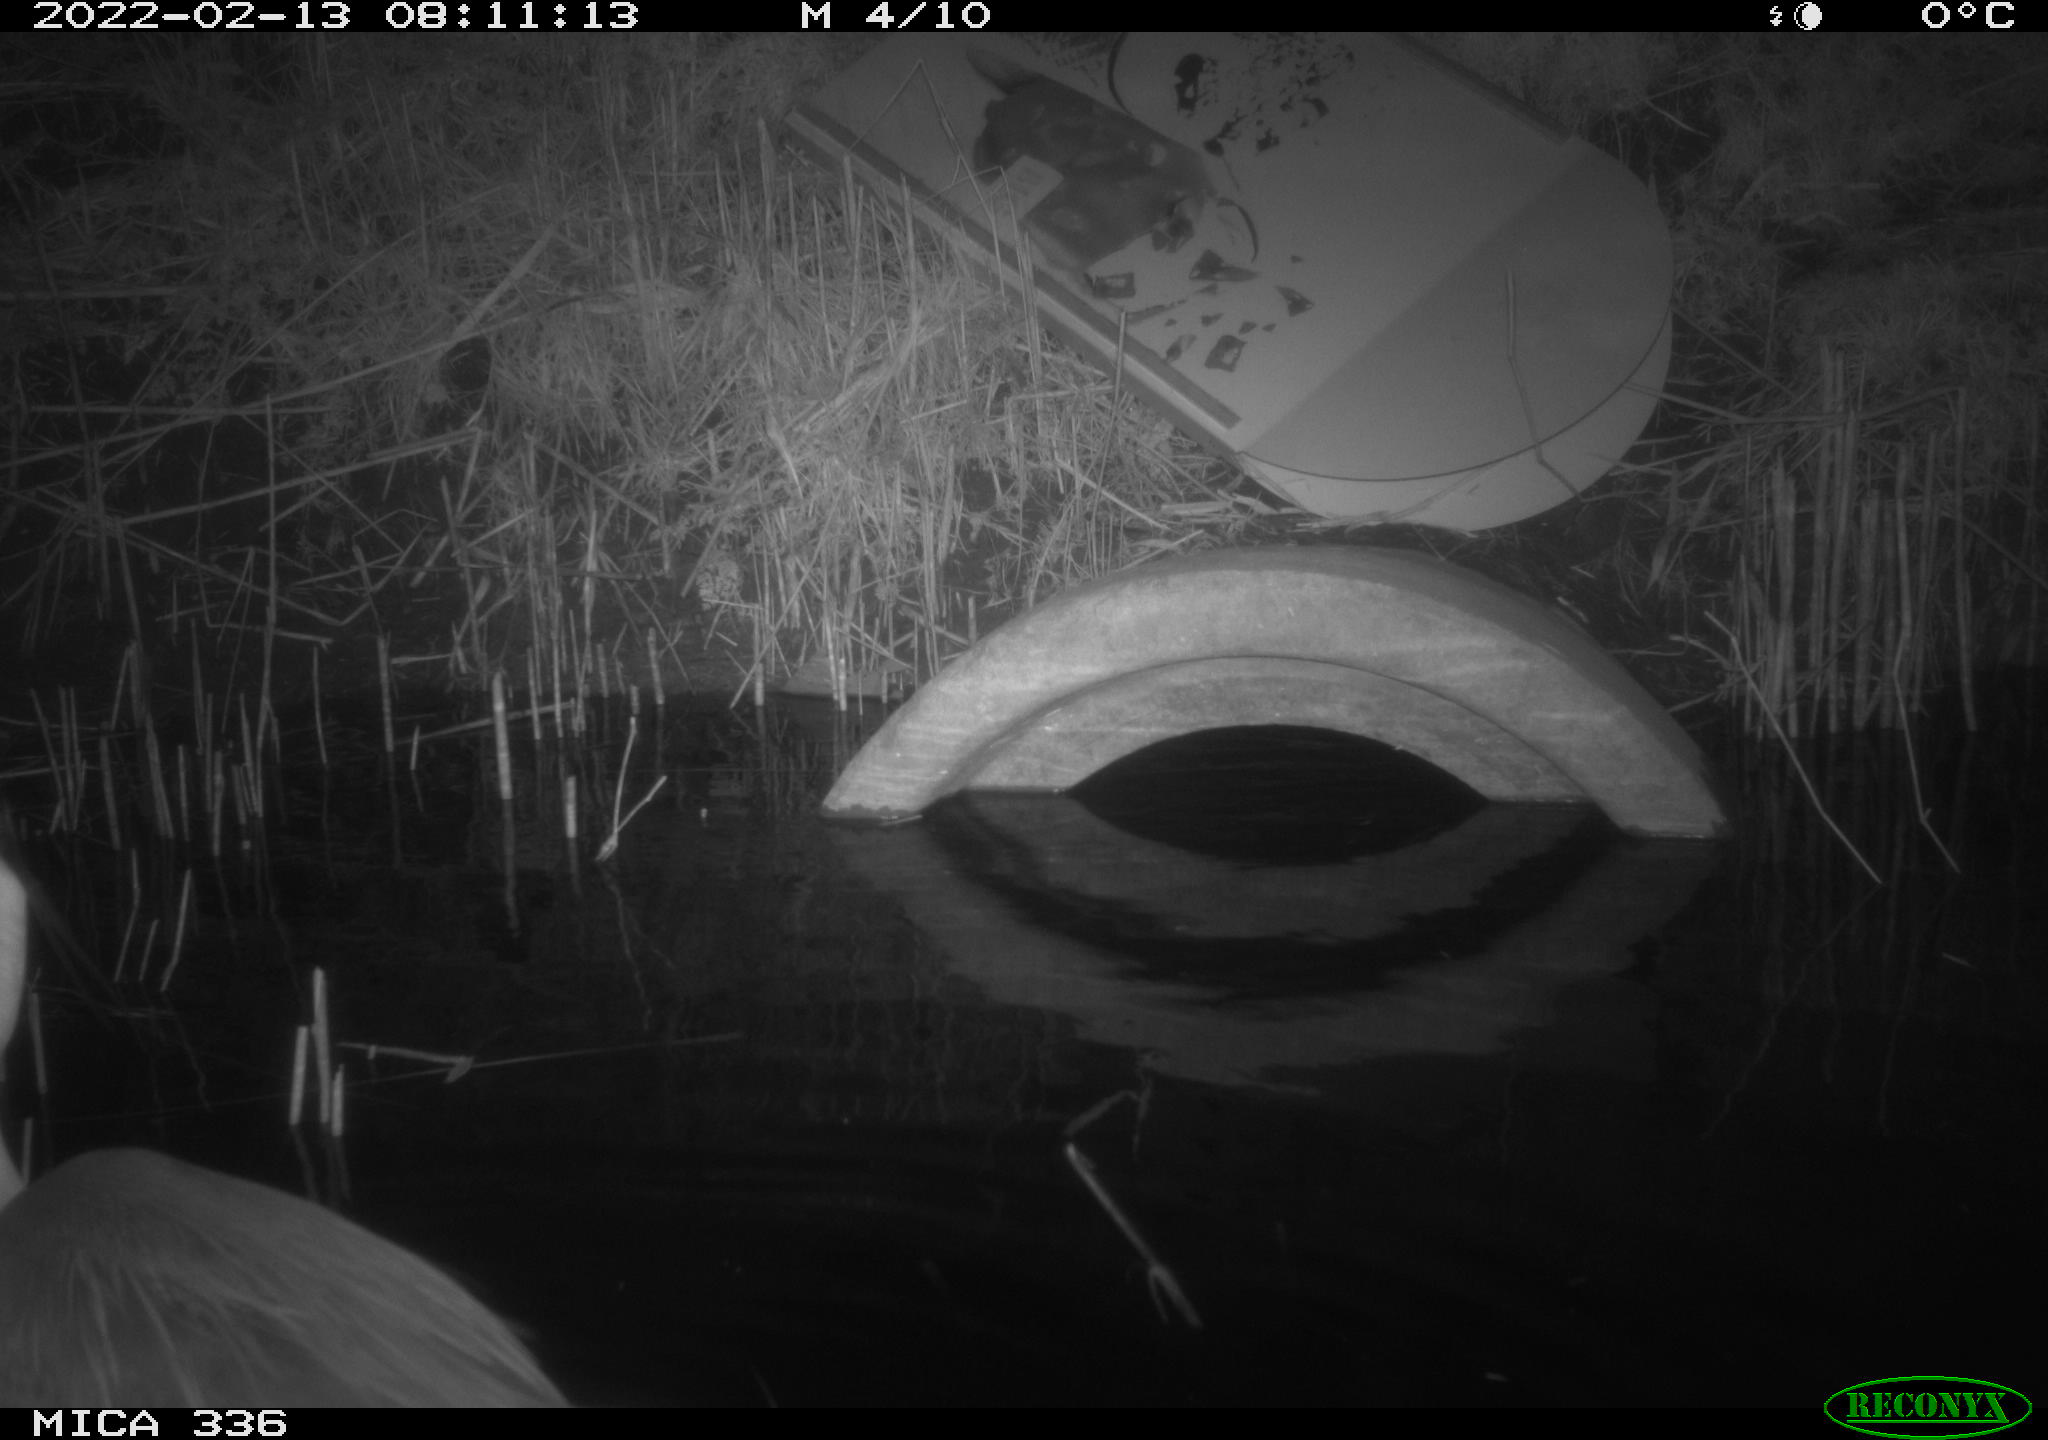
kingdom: Animalia
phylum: Chordata
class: Aves
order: Pelecaniformes
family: Ardeidae
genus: Ardea
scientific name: Ardea cinerea
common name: Grey heron
